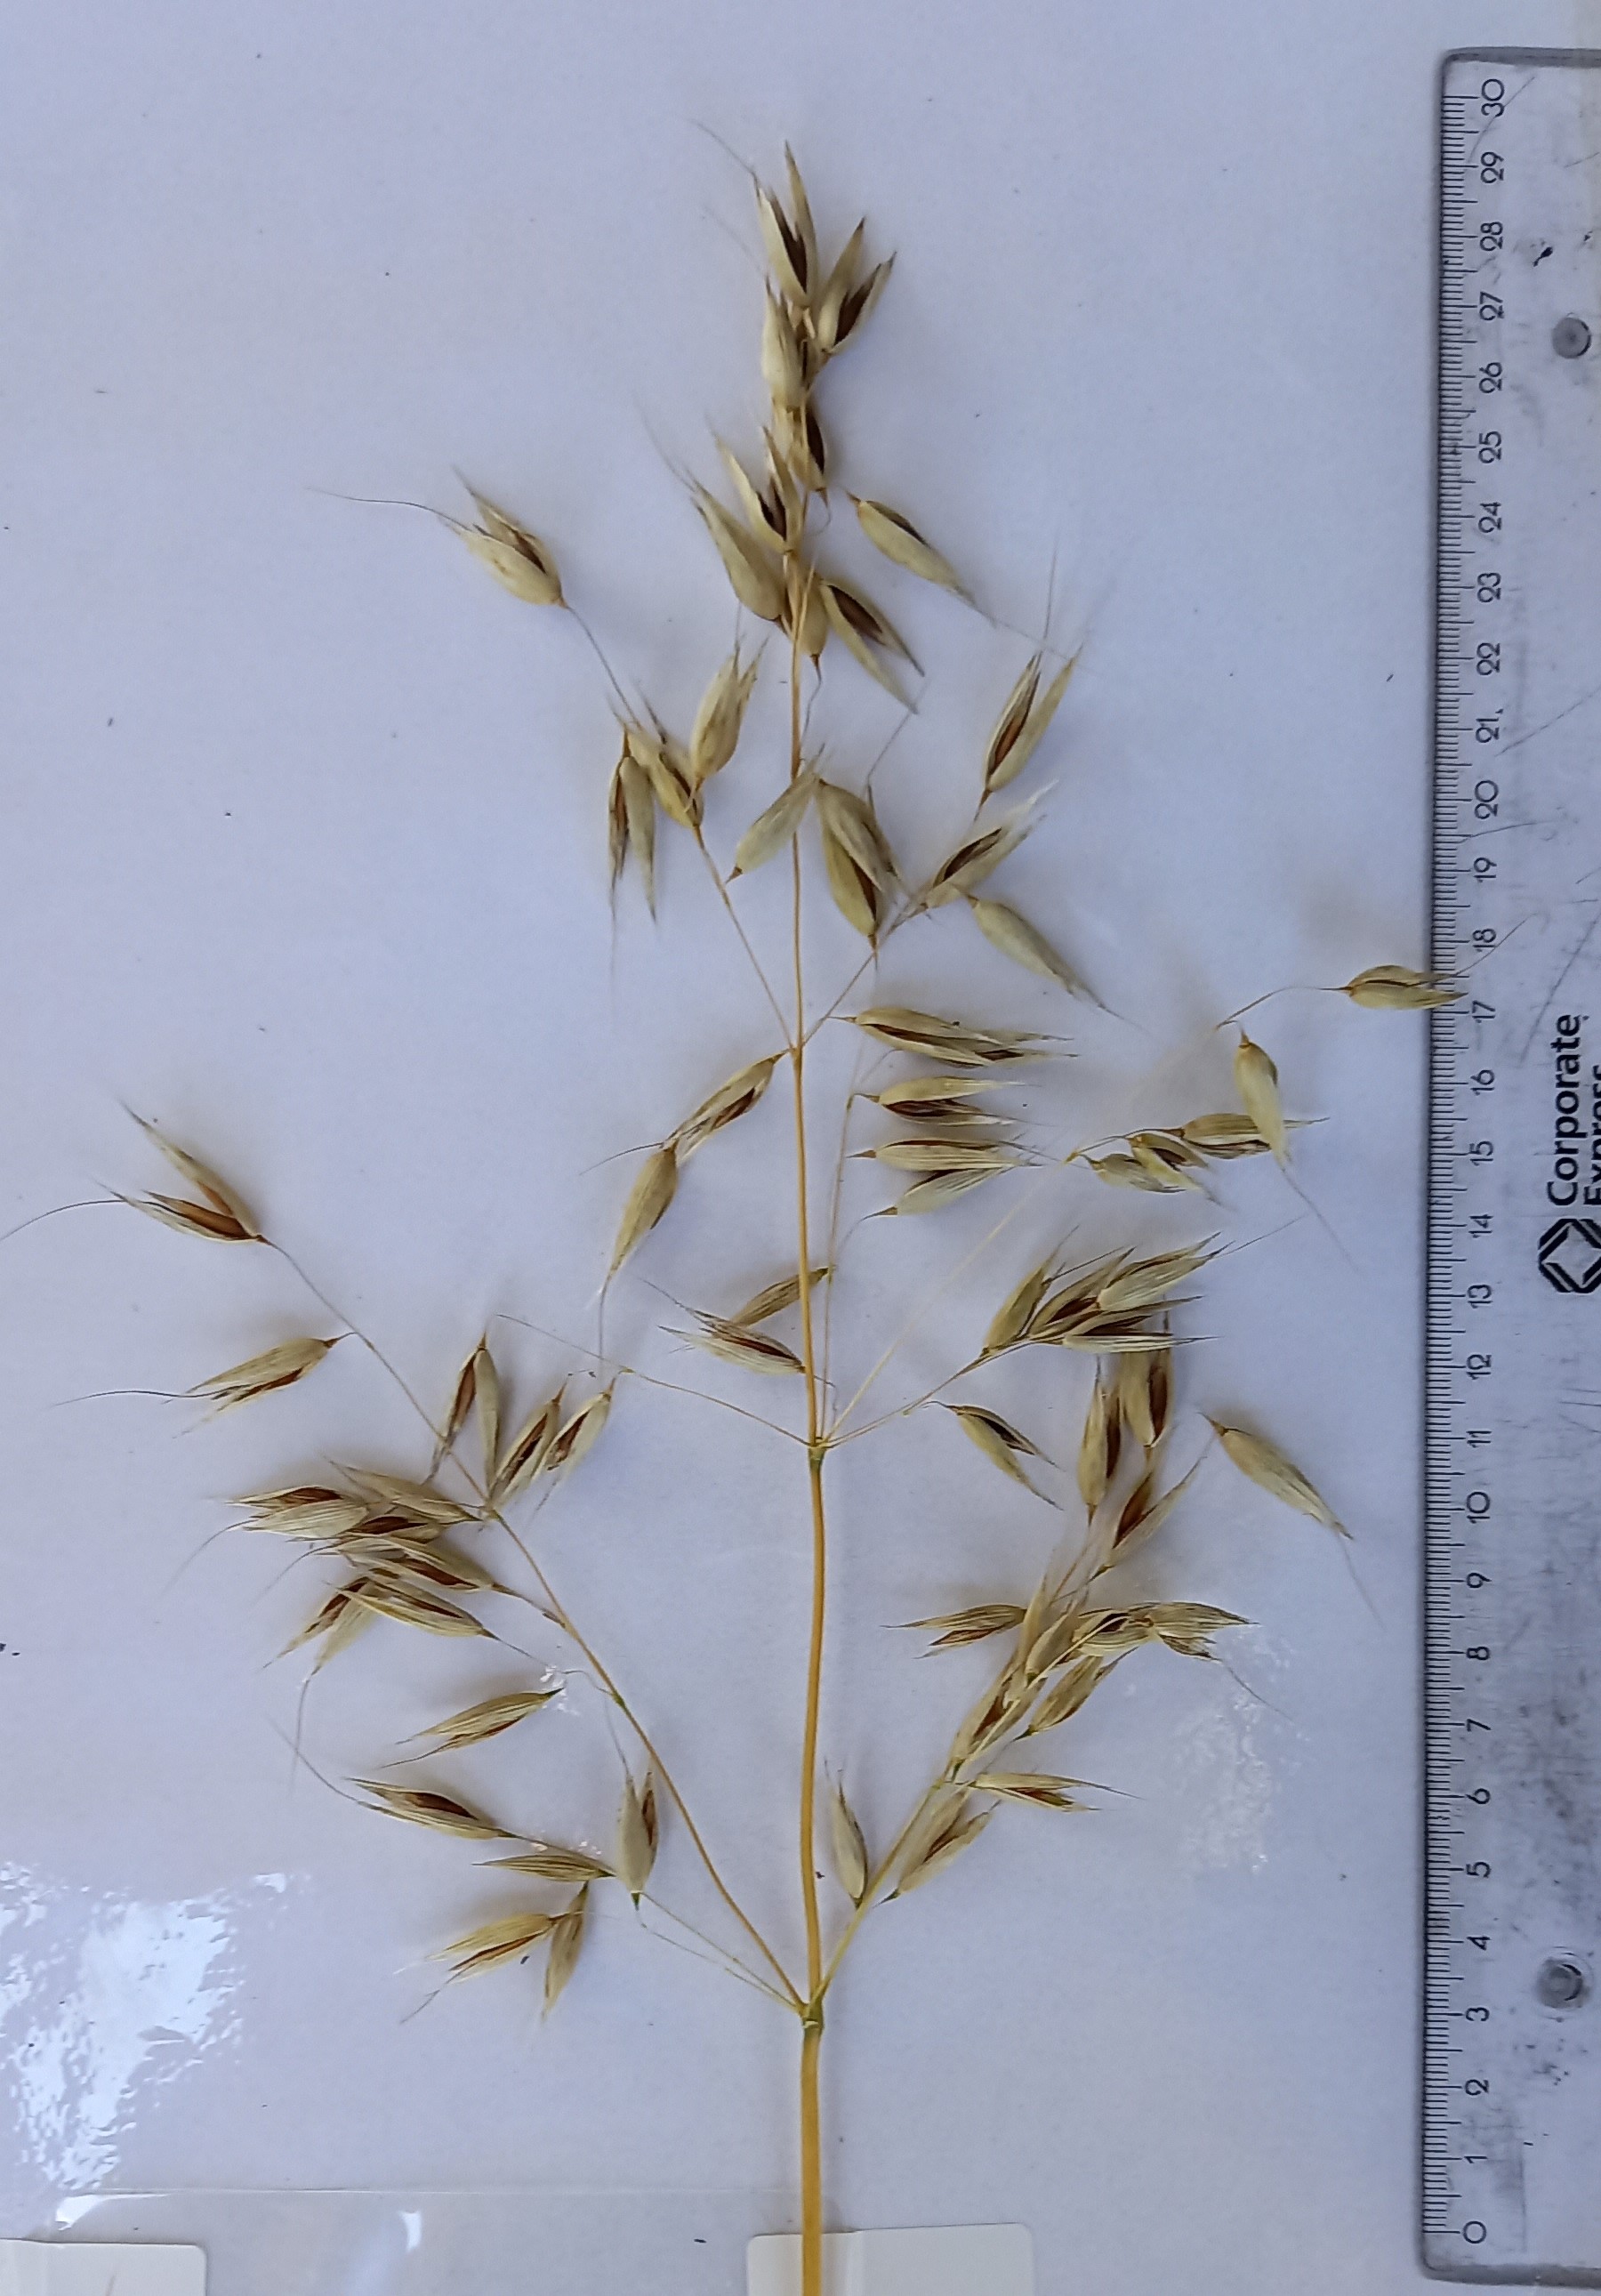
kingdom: Plantae
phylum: Tracheophyta
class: Liliopsida
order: Poales
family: Poaceae
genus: Avena
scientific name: Avena sativa
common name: Oat
